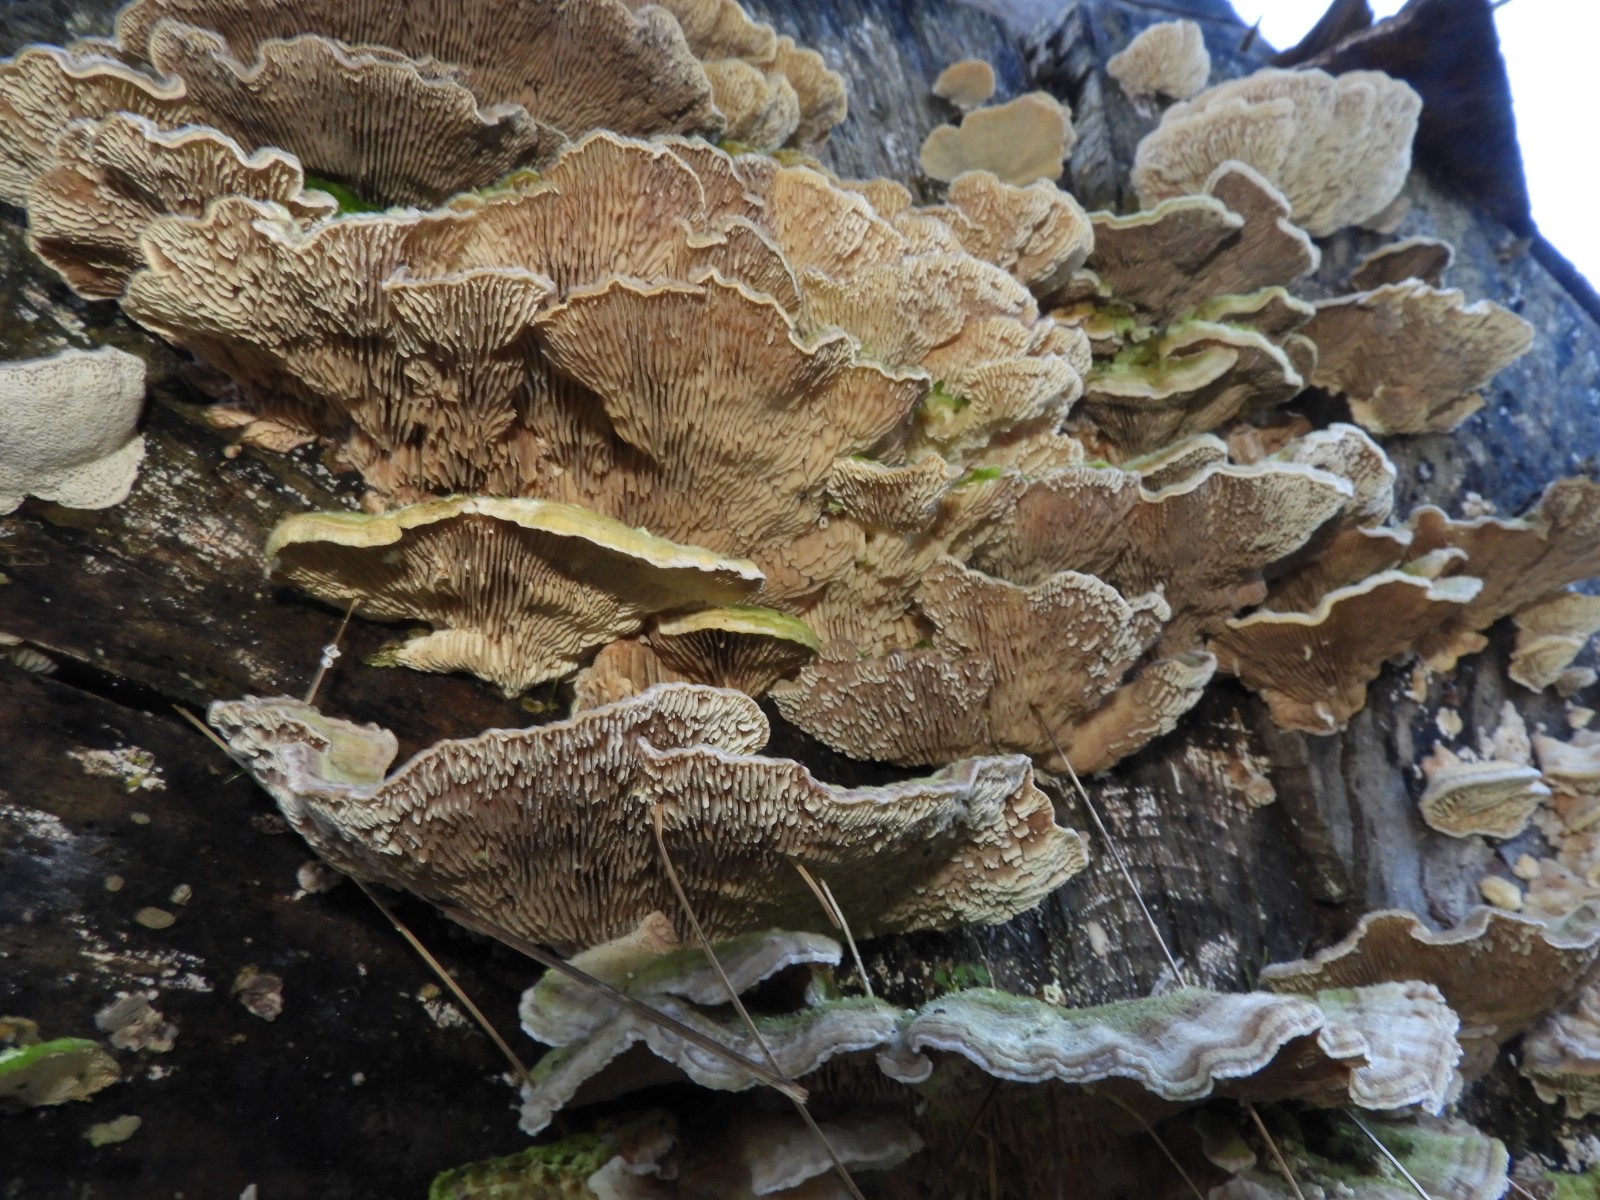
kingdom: Fungi
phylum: Basidiomycota
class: Agaricomycetes
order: Polyporales
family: Polyporaceae
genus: Lenzites
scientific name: Lenzites betulinus
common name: birke-læderporesvamp
